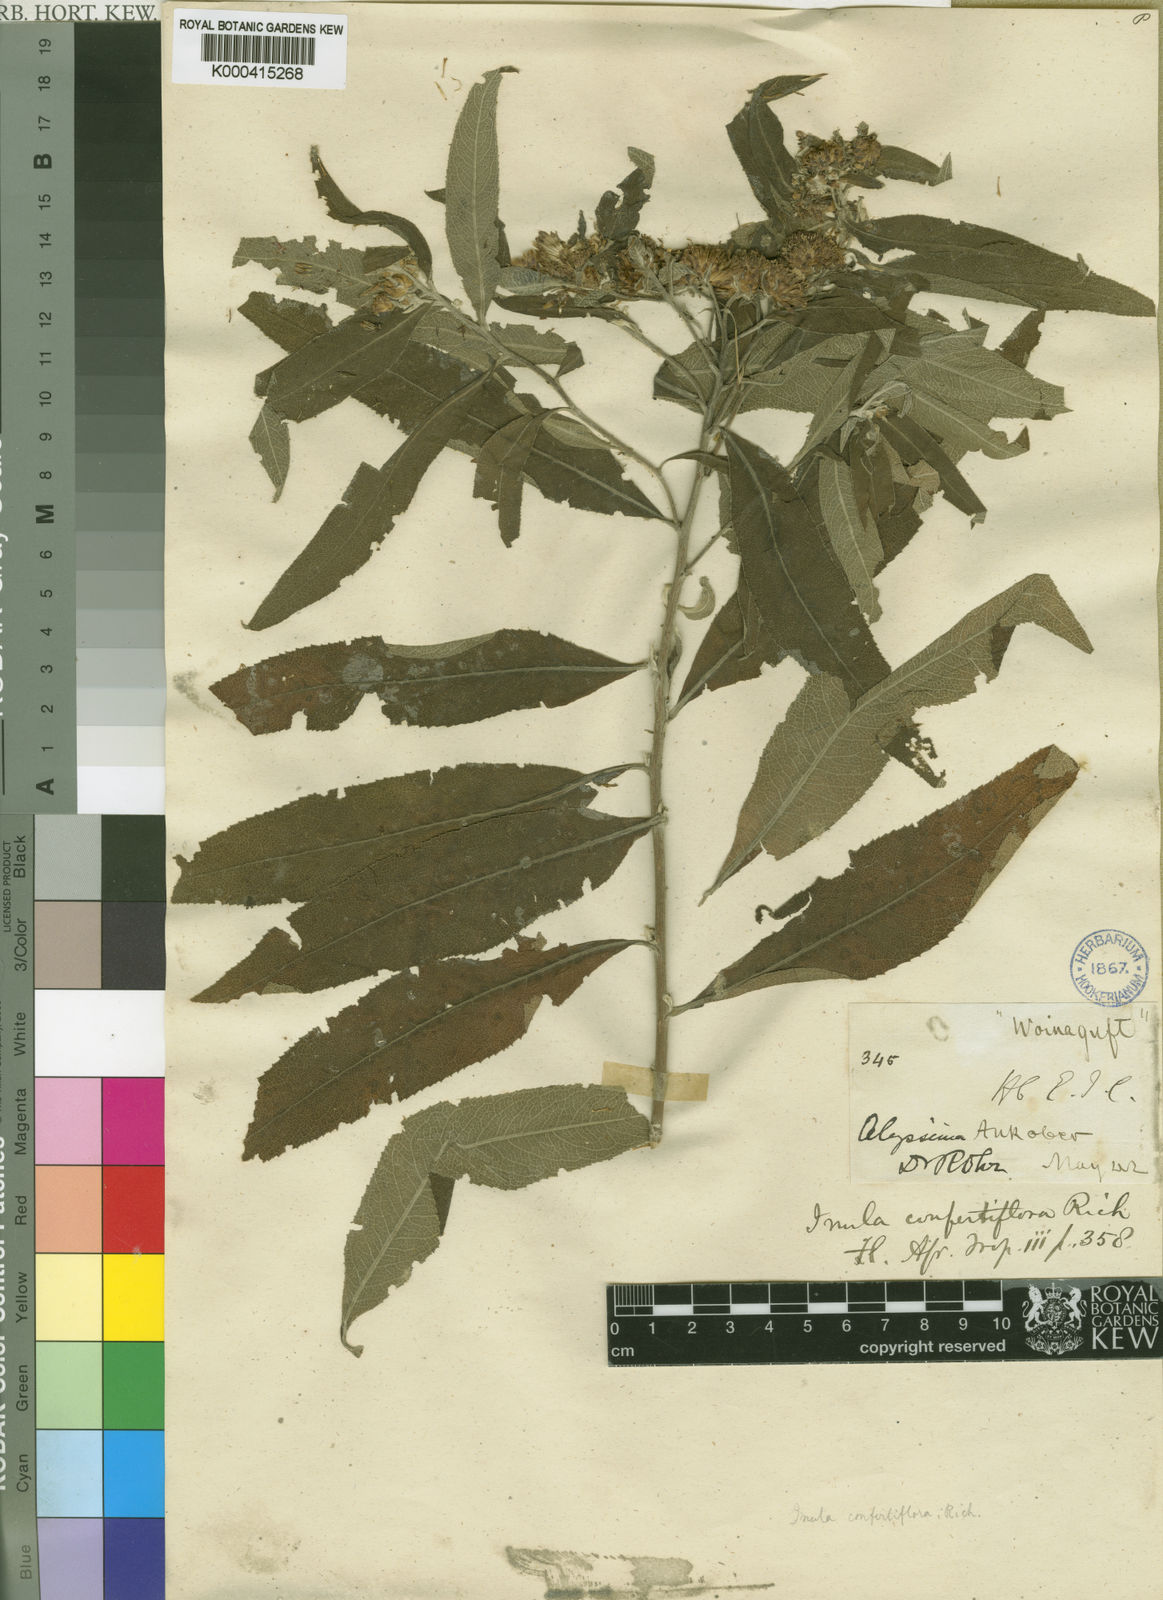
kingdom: Plantae
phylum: Tracheophyta
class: Magnoliopsida
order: Asterales
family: Asteraceae
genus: Pentanema
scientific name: Pentanema confertiflorum
